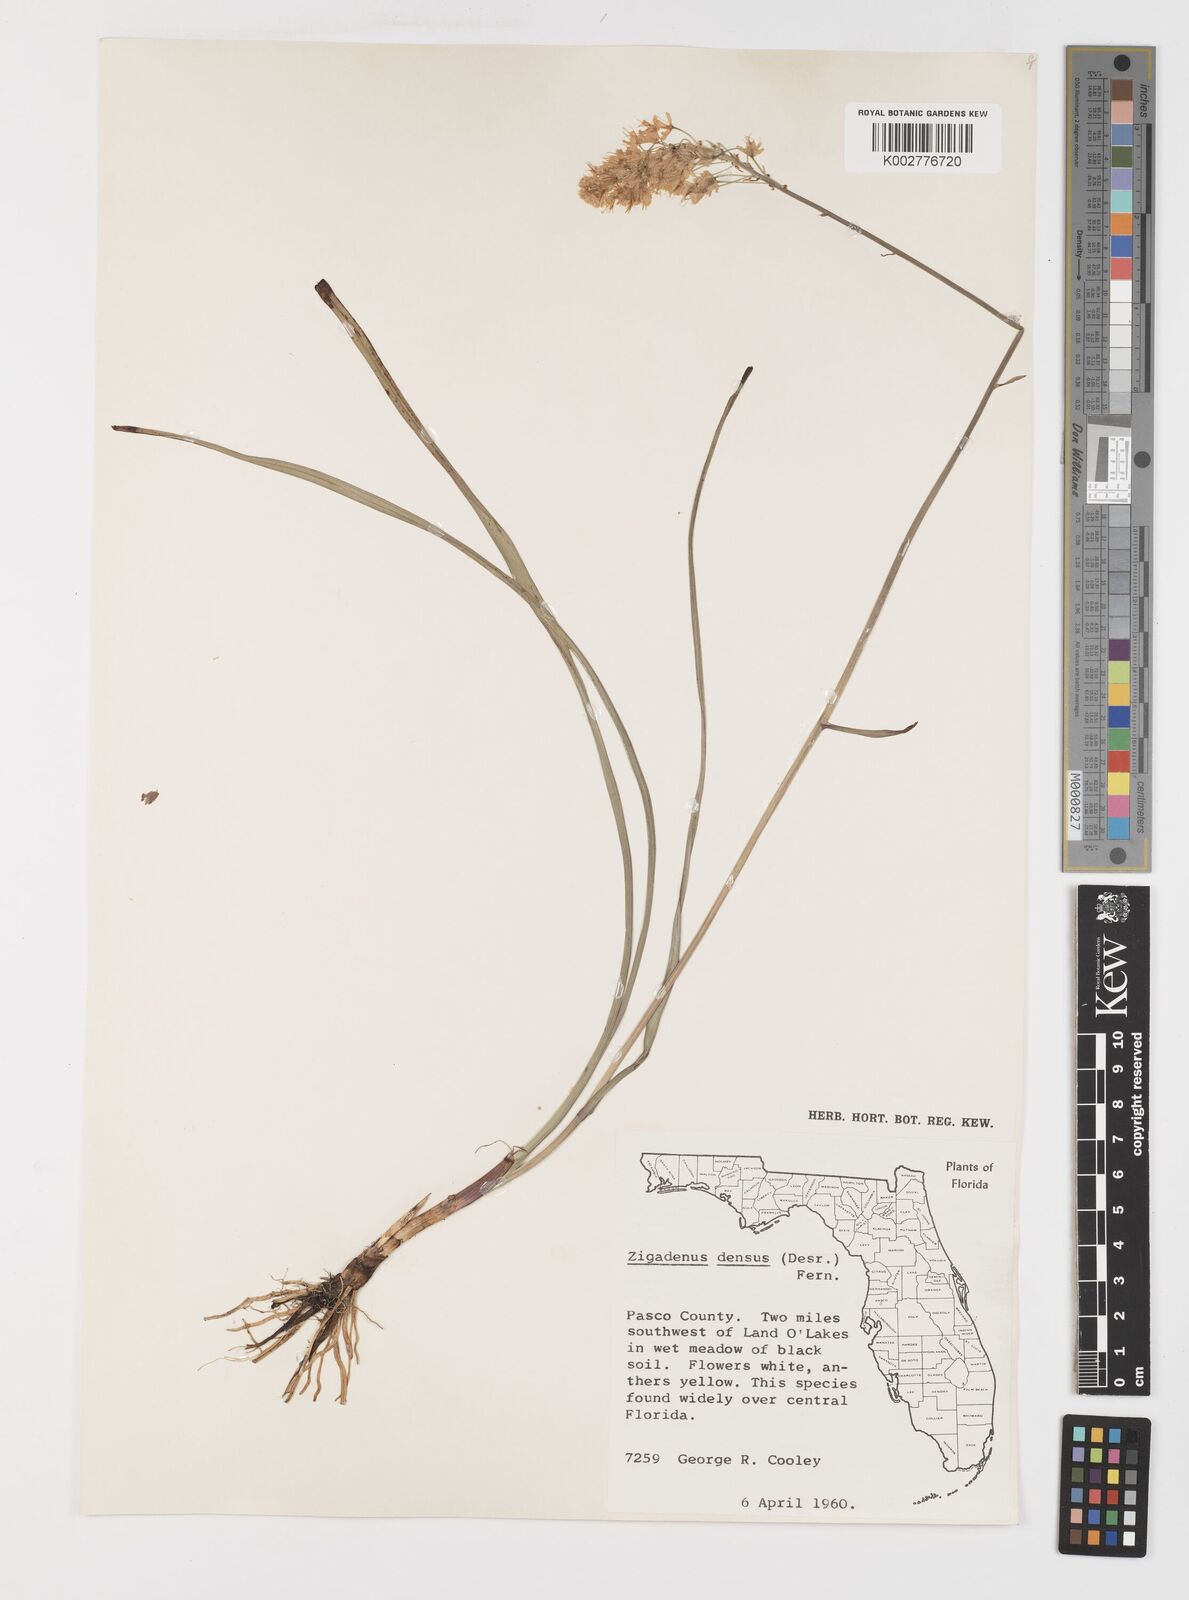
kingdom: Plantae
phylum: Tracheophyta
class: Liliopsida
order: Liliales
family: Melanthiaceae
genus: Stenanthium
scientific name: Stenanthium densum
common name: Crow-poison
